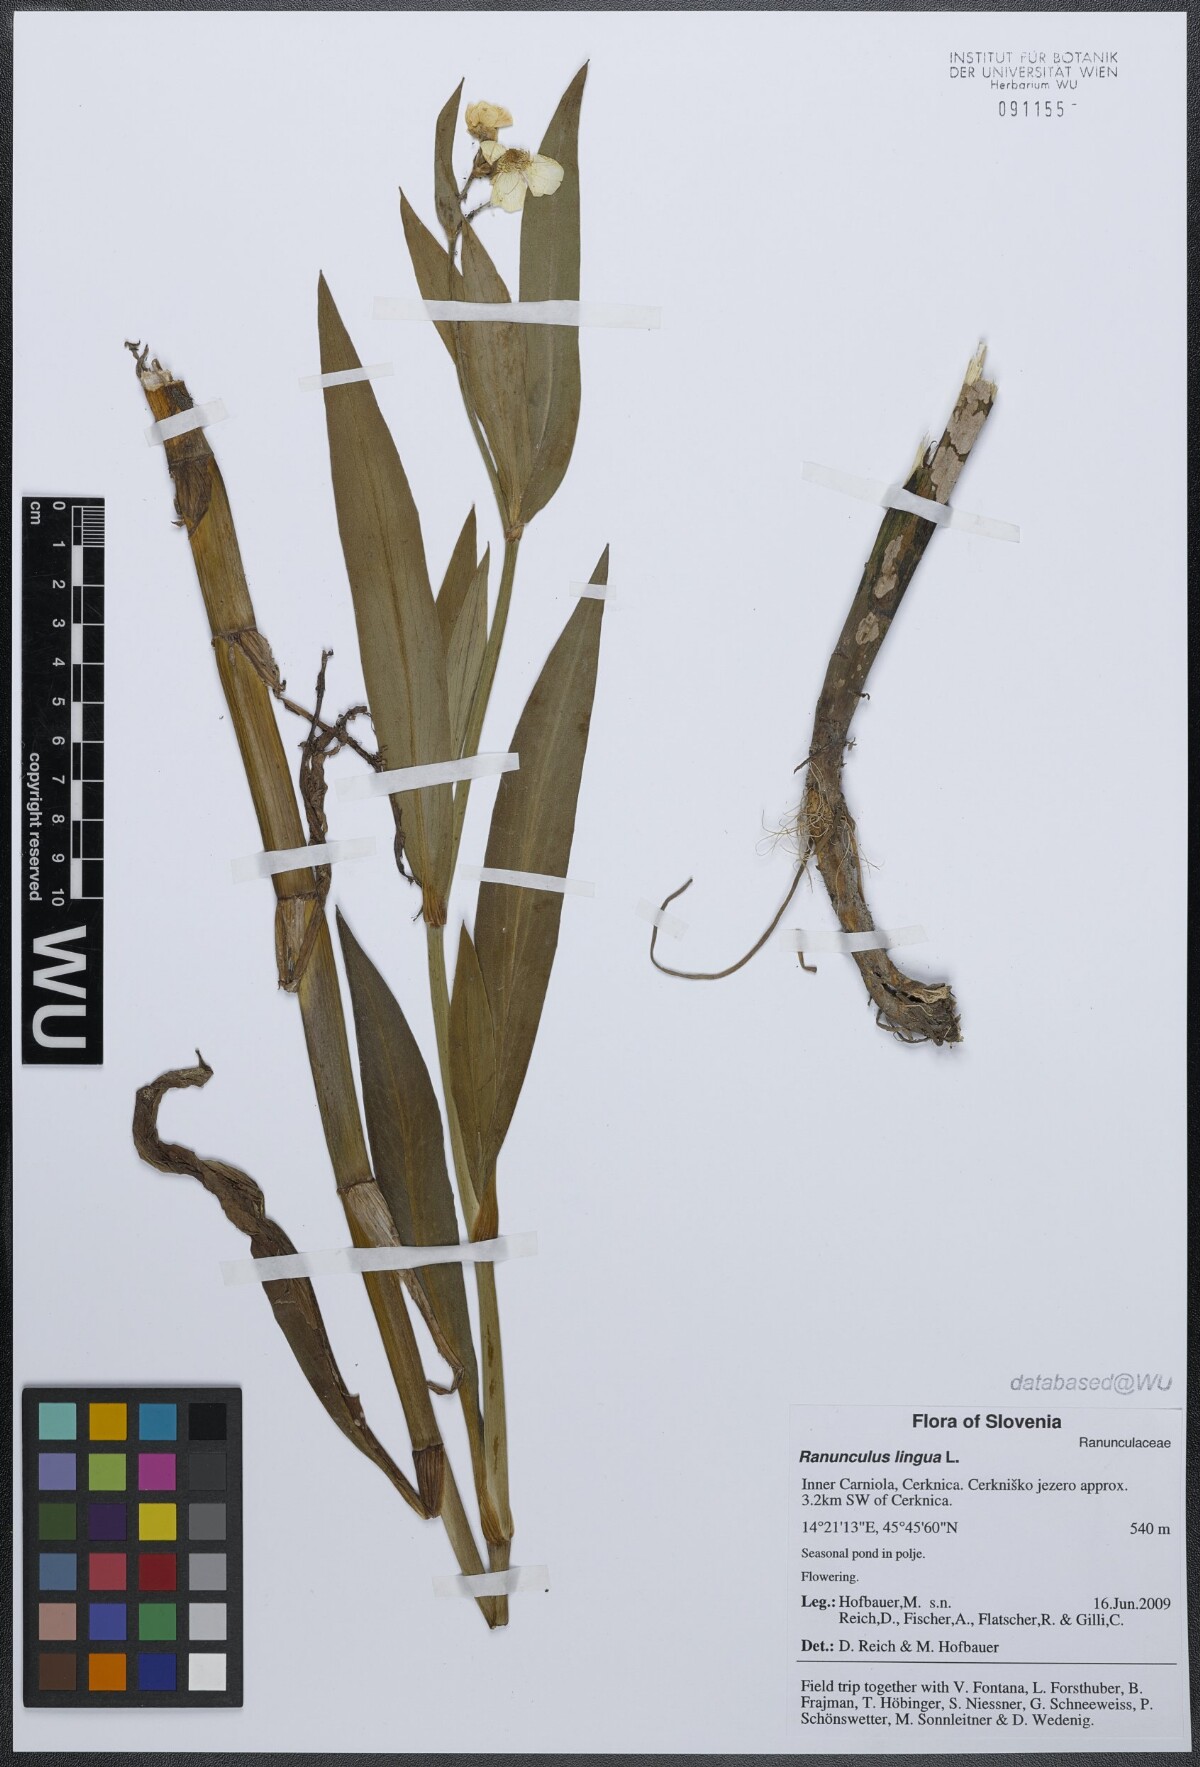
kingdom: Plantae
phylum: Tracheophyta
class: Magnoliopsida
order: Ranunculales
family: Ranunculaceae
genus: Ranunculus
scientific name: Ranunculus lingua
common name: Greater spearwort
